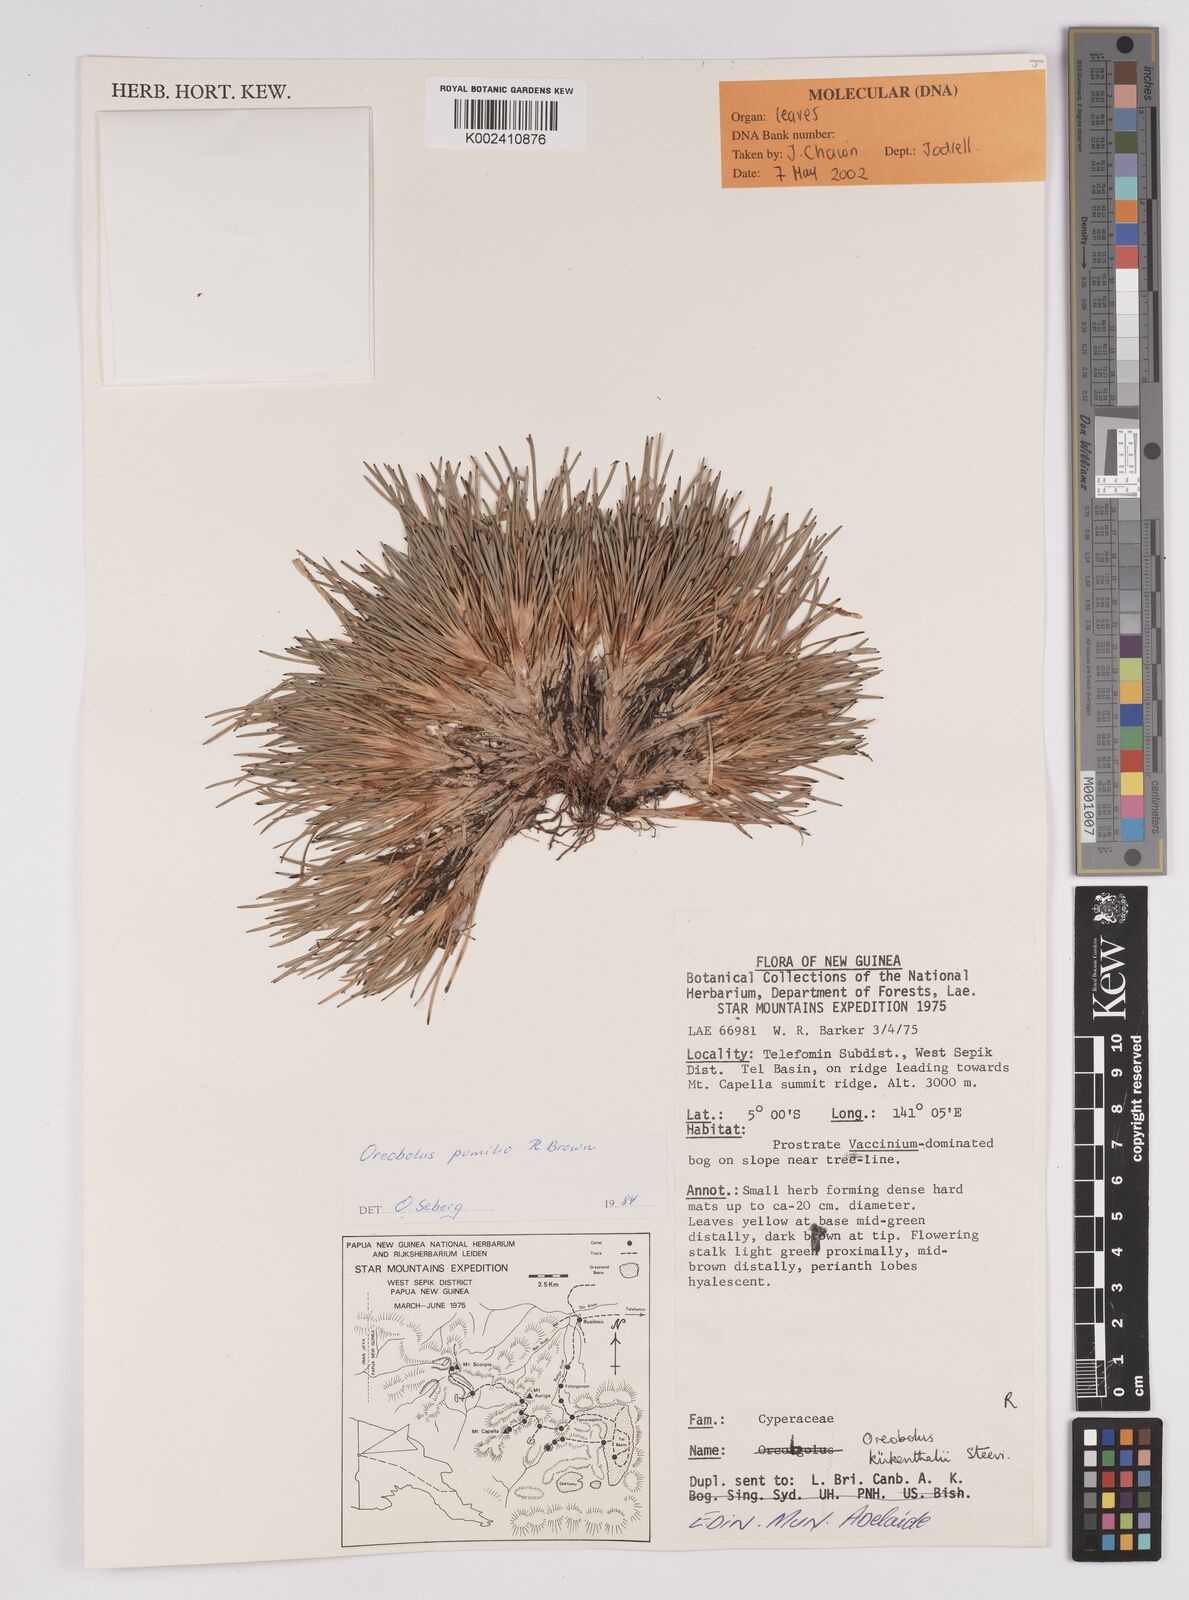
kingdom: Plantae
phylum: Tracheophyta
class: Liliopsida
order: Poales
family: Cyperaceae
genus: Oreobolus
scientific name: Oreobolus pumilio
